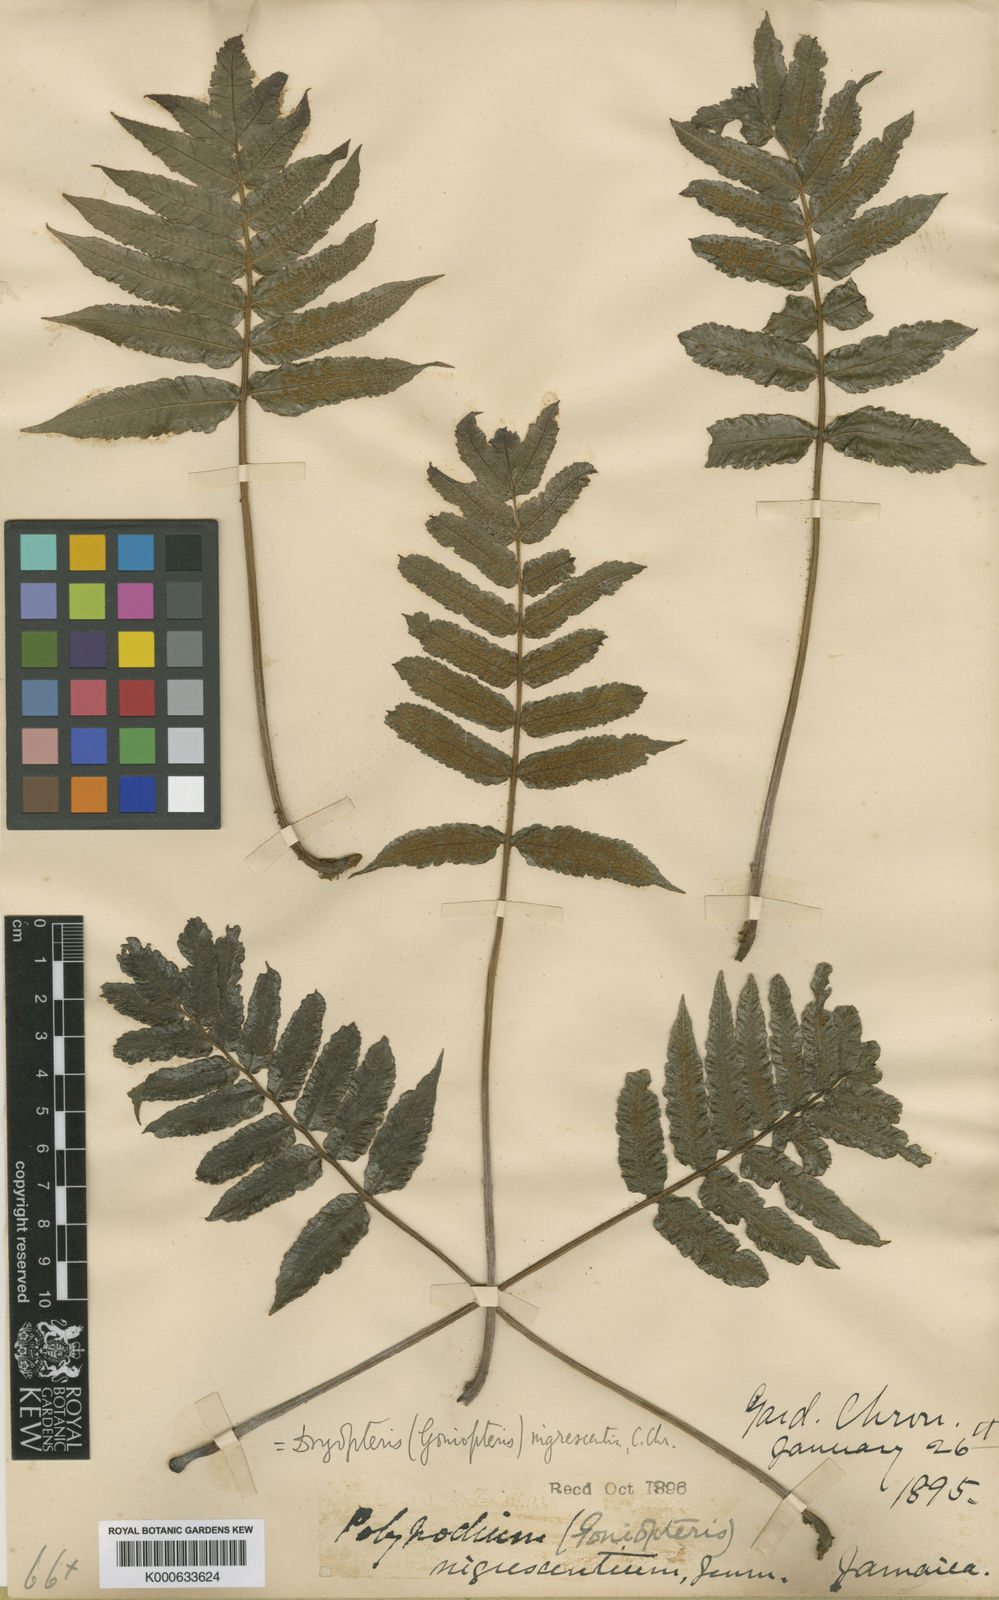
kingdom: Plantae
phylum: Tracheophyta
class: Polypodiopsida
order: Polypodiales
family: Thelypteridaceae
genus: Goniopteris
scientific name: Goniopteris obliterata
